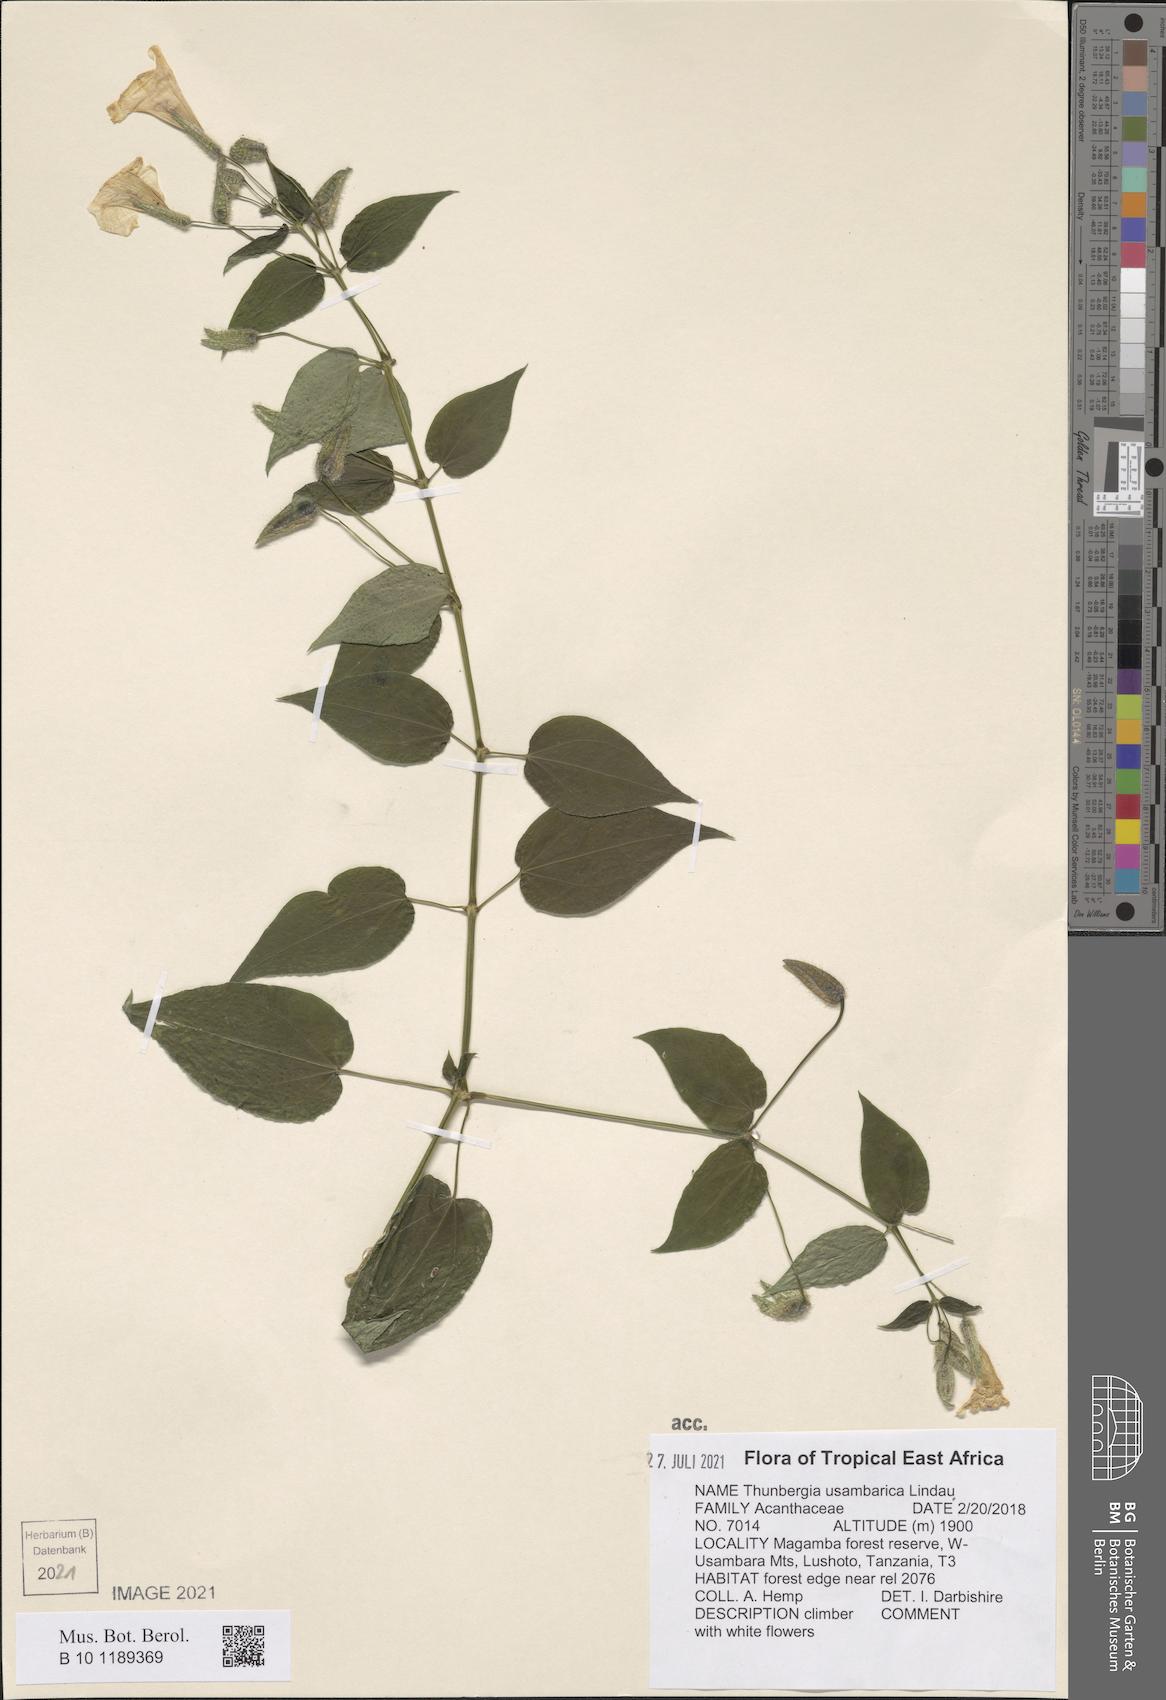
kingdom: Plantae
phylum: Tracheophyta
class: Magnoliopsida
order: Lamiales
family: Acanthaceae
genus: Thunbergia
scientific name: Thunbergia usambarica
